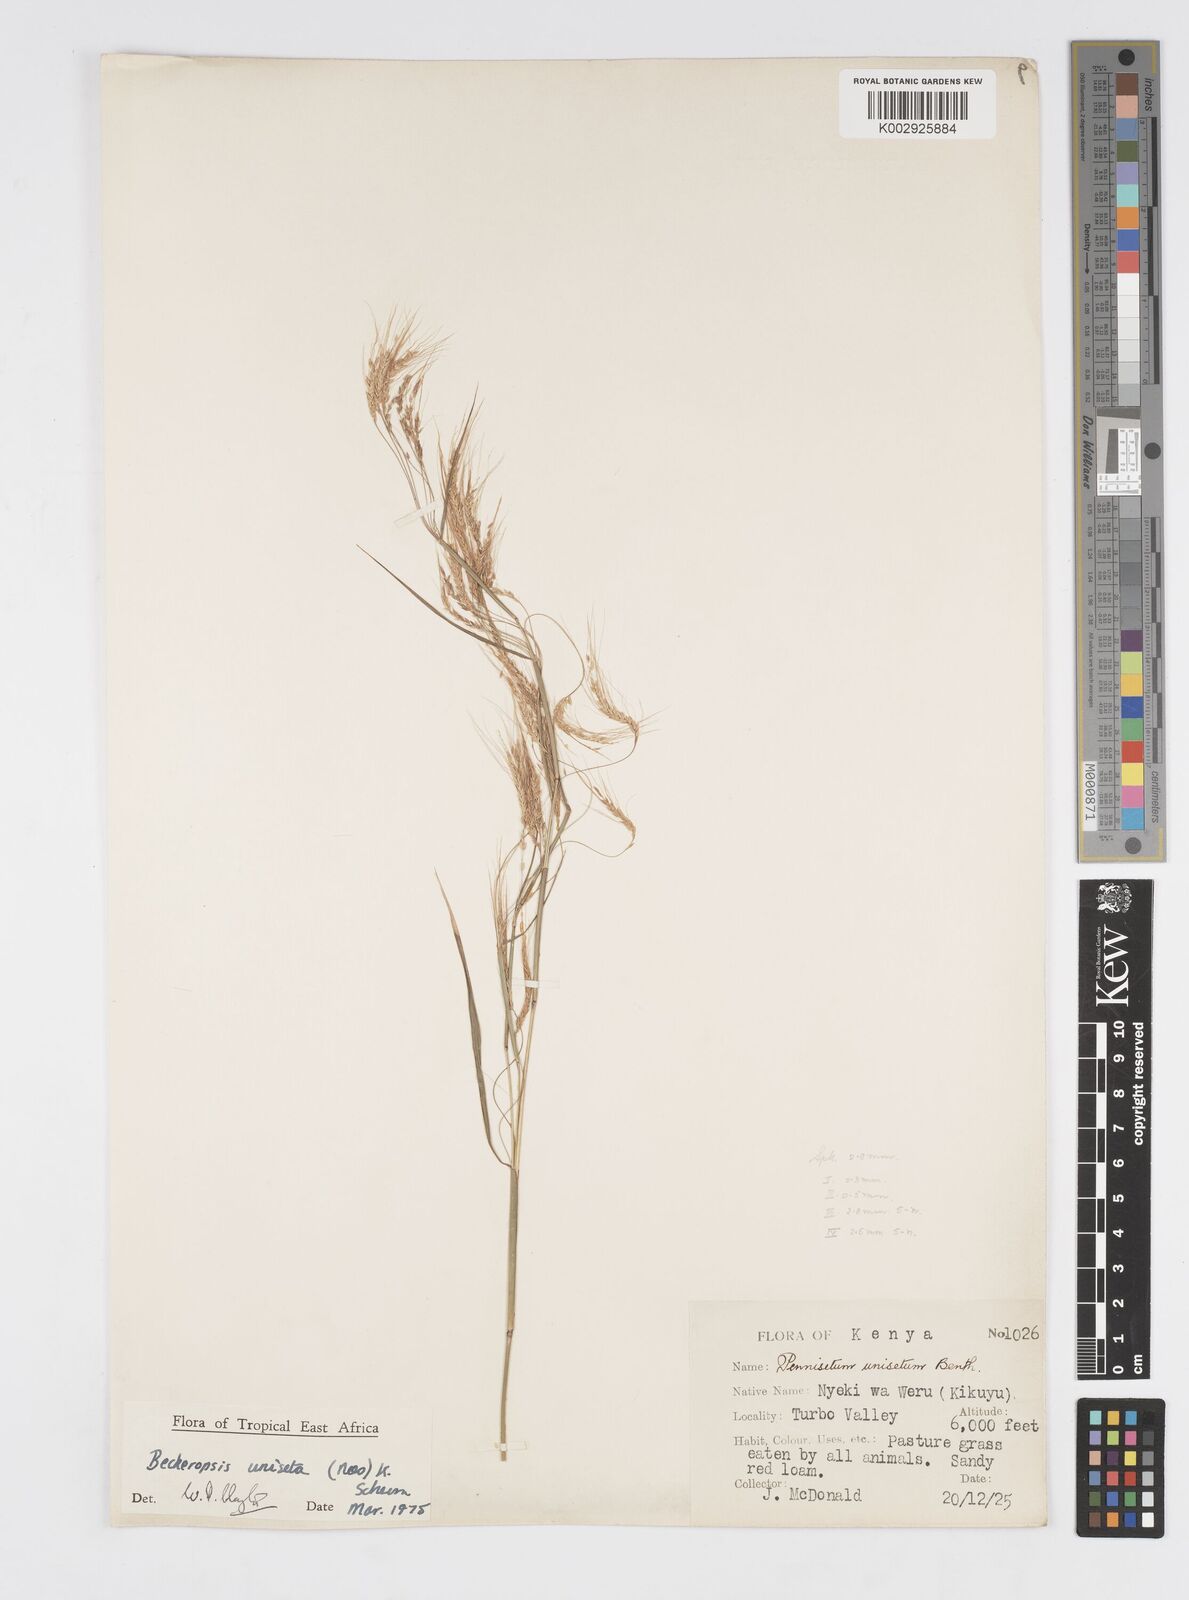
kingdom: Plantae
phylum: Tracheophyta
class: Liliopsida
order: Poales
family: Poaceae
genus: Cenchrus
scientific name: Cenchrus Pennisetum spec
